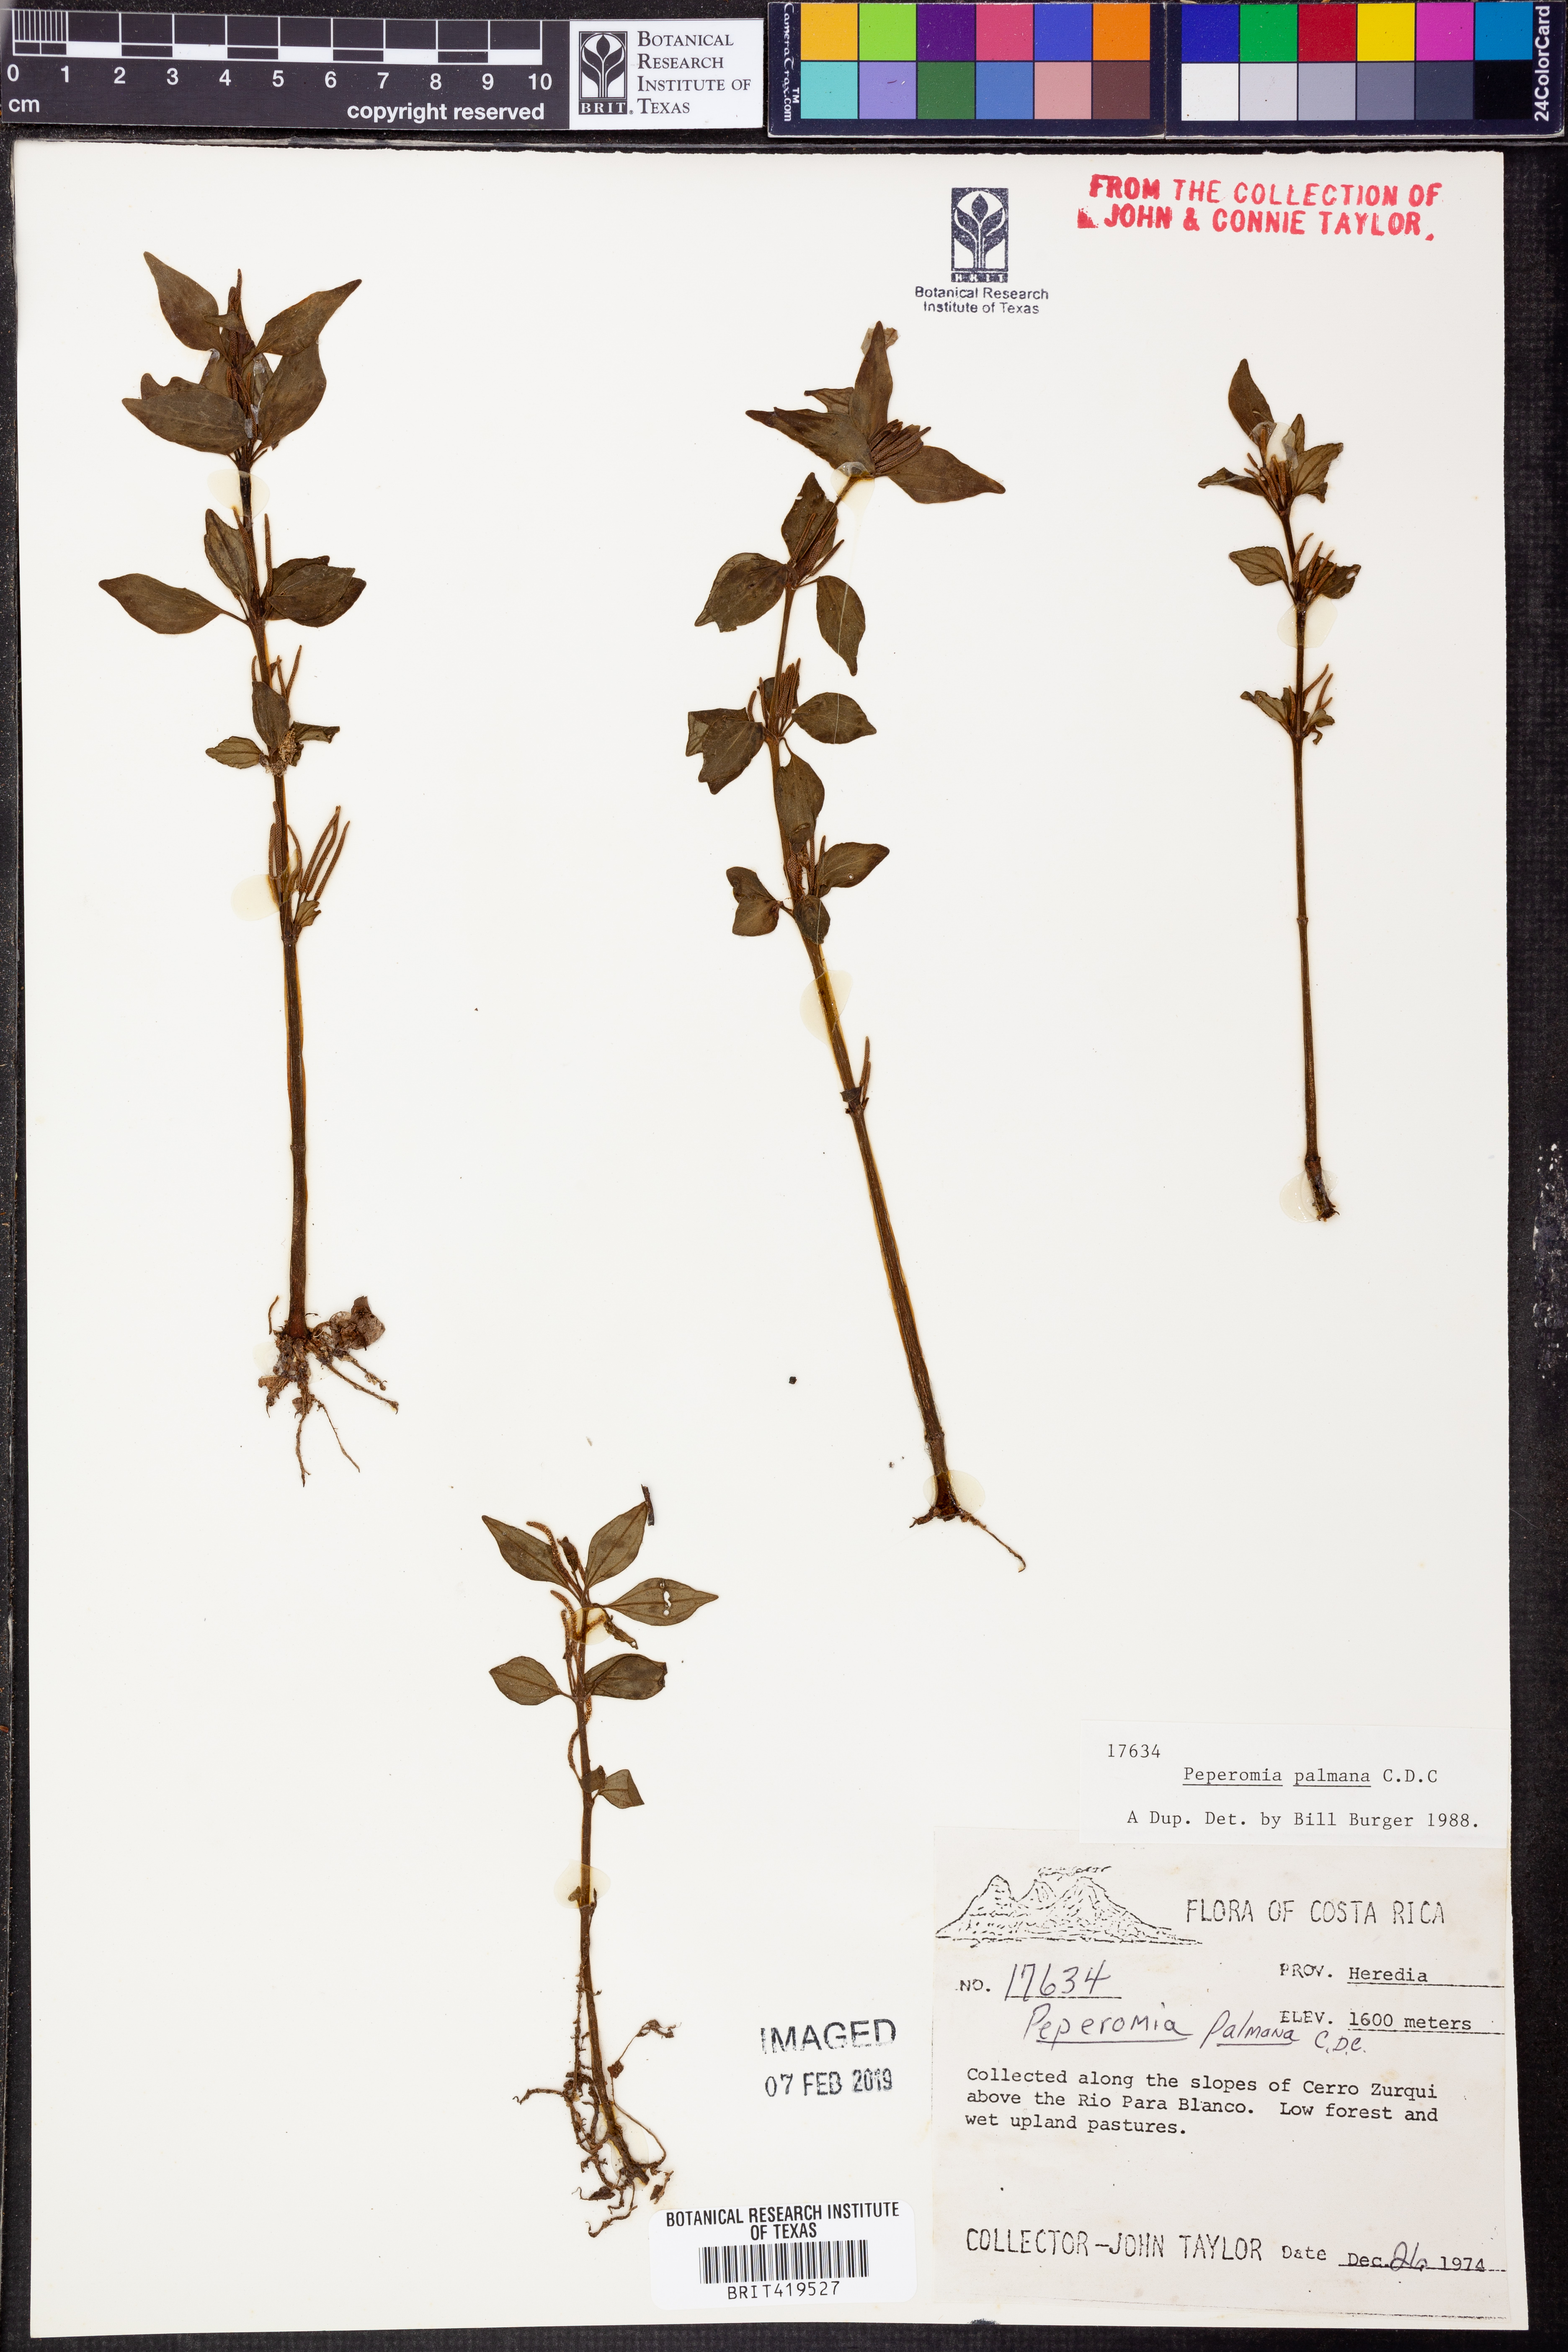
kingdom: Plantae
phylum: Tracheophyta
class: Magnoliopsida
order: Piperales
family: Piperaceae
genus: Peperomia
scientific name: Peperomia palmana
